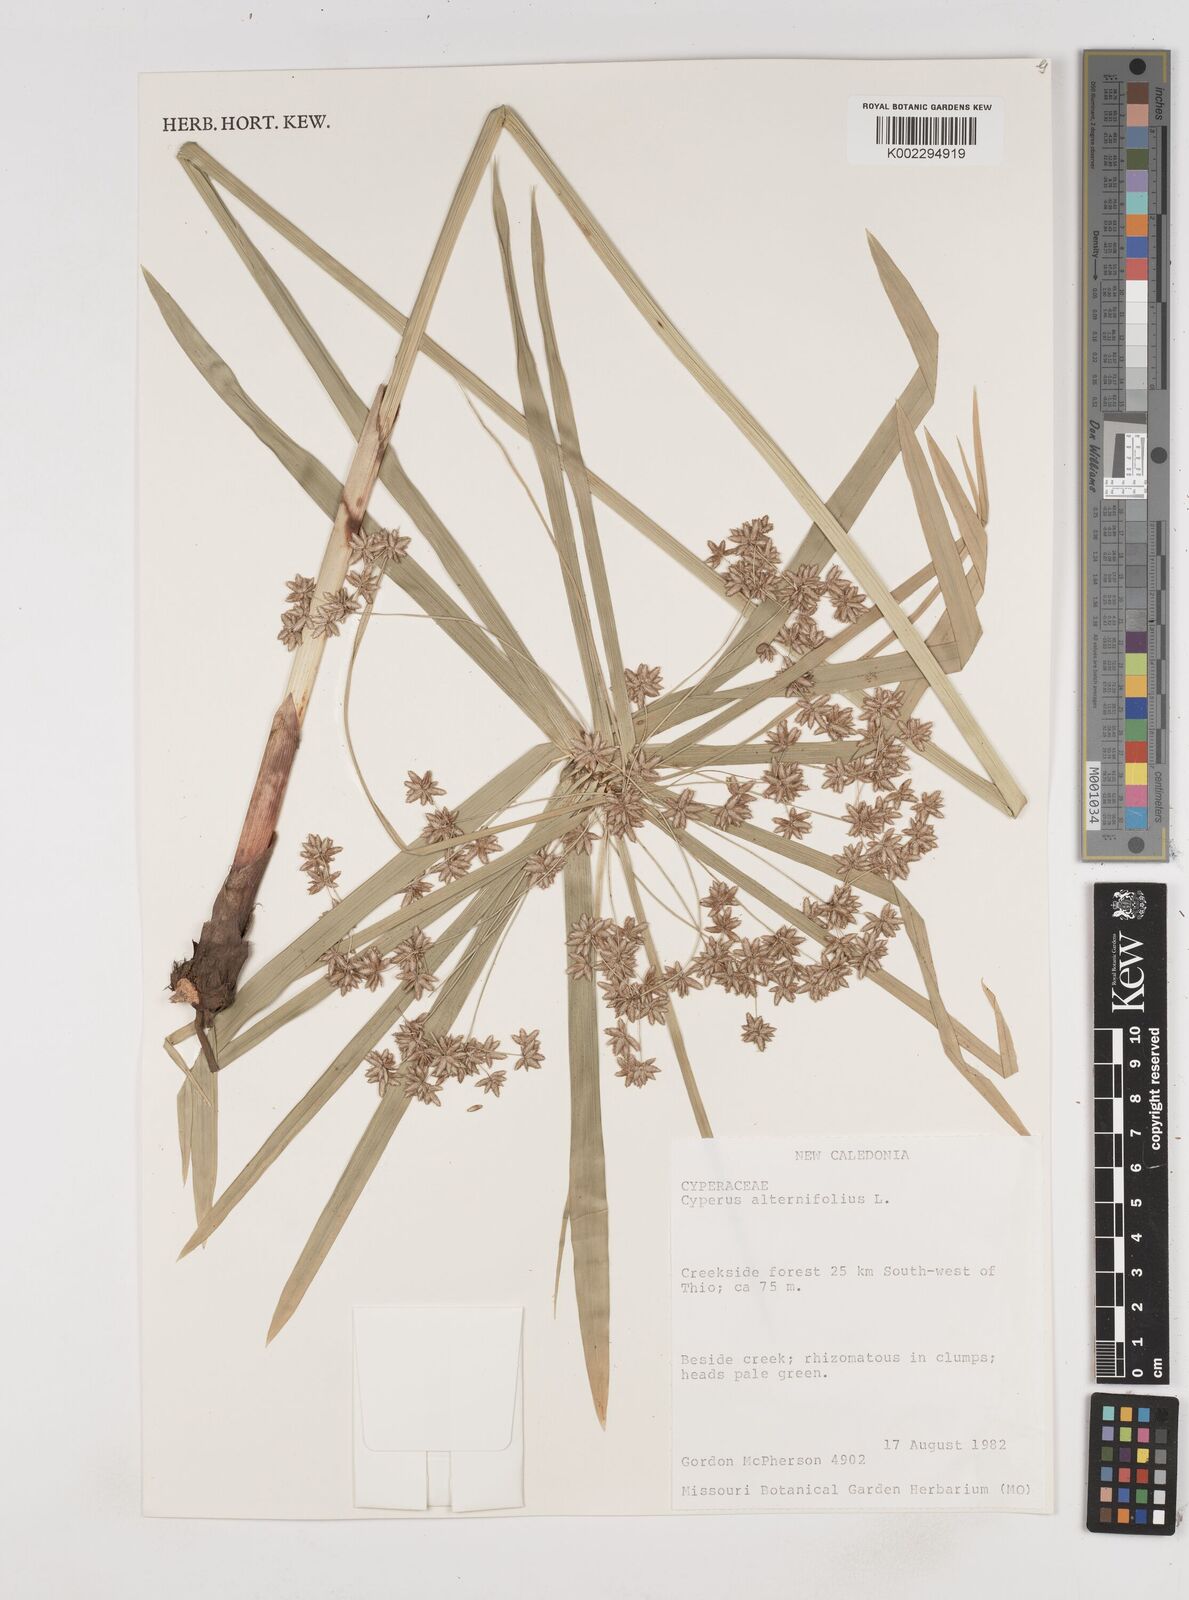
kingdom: Plantae
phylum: Tracheophyta
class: Liliopsida
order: Poales
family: Cyperaceae
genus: Cyperus
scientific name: Cyperus alternifolius
